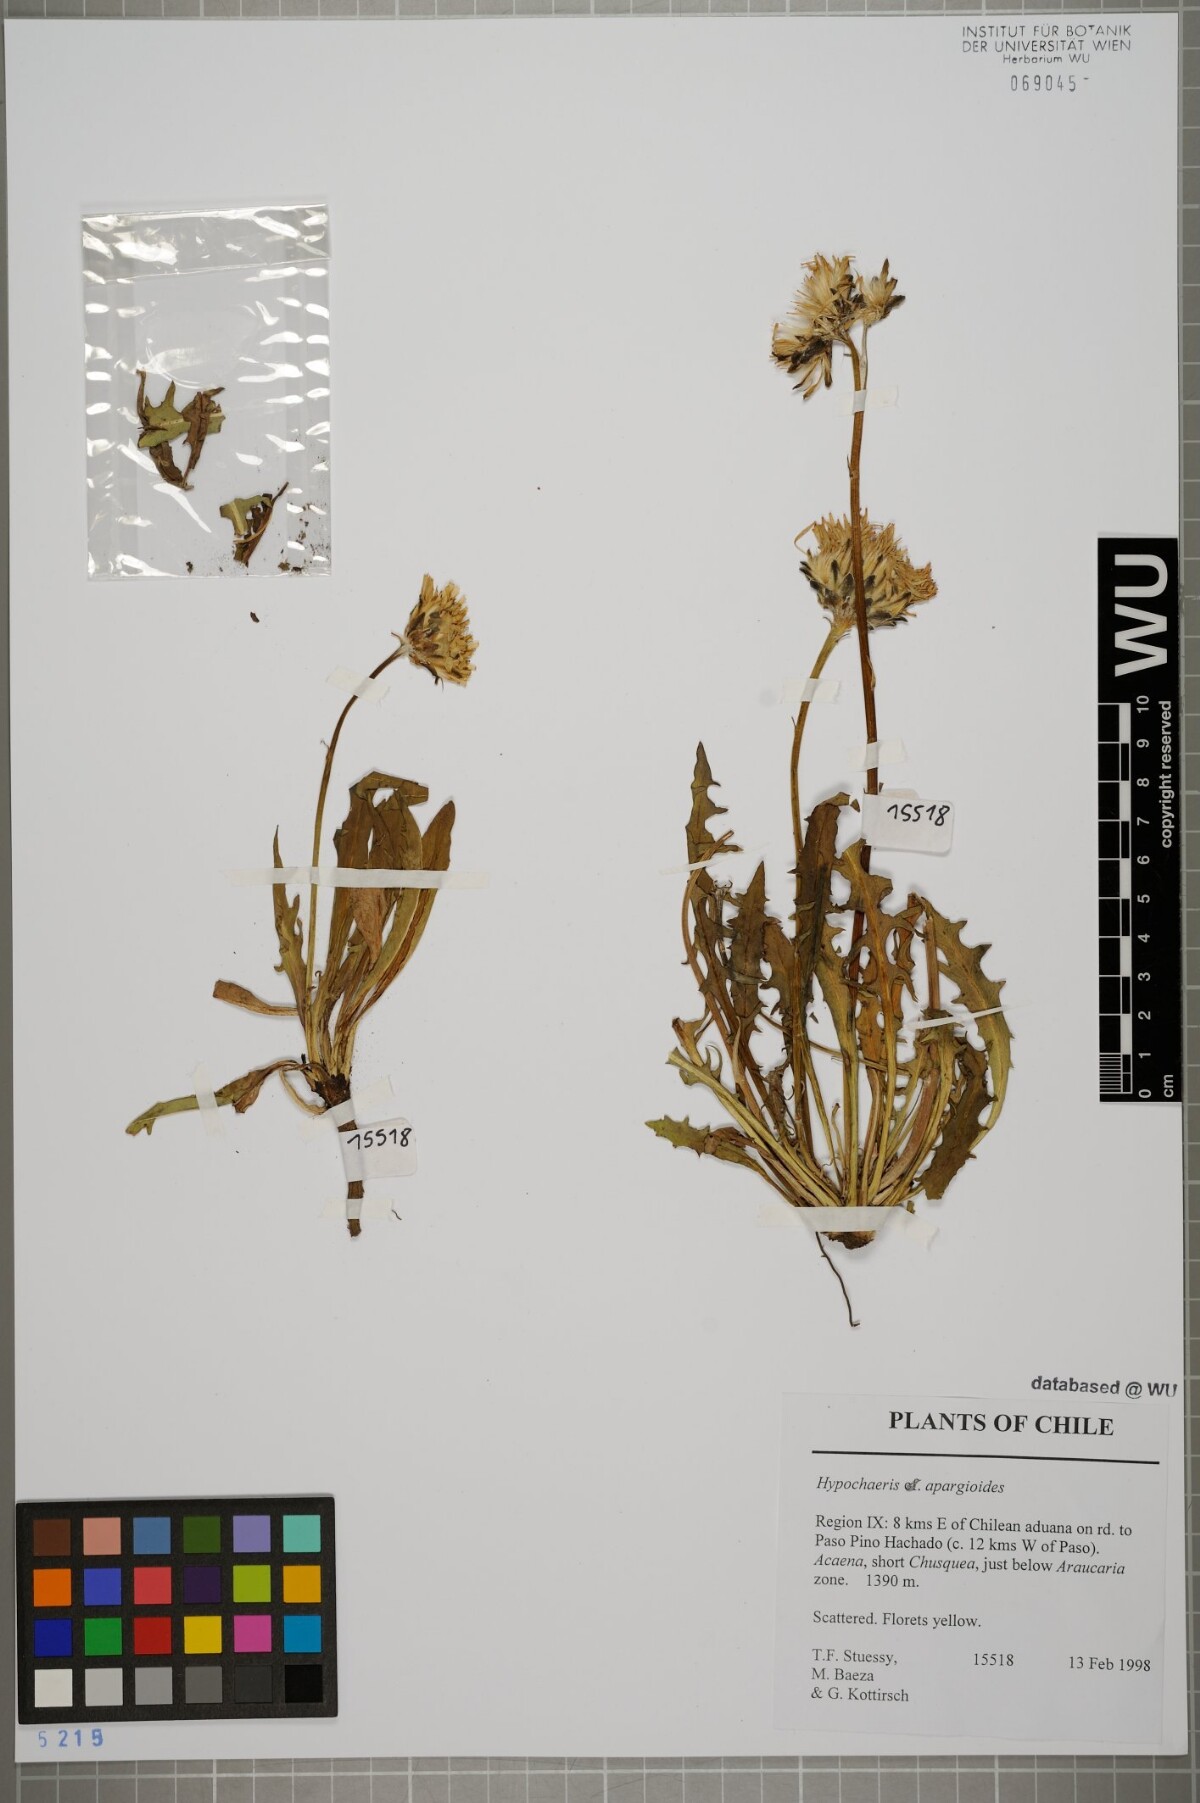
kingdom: Plantae
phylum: Tracheophyta
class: Magnoliopsida
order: Asterales
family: Asteraceae
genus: Hypochaeris
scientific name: Hypochaeris apargioides
